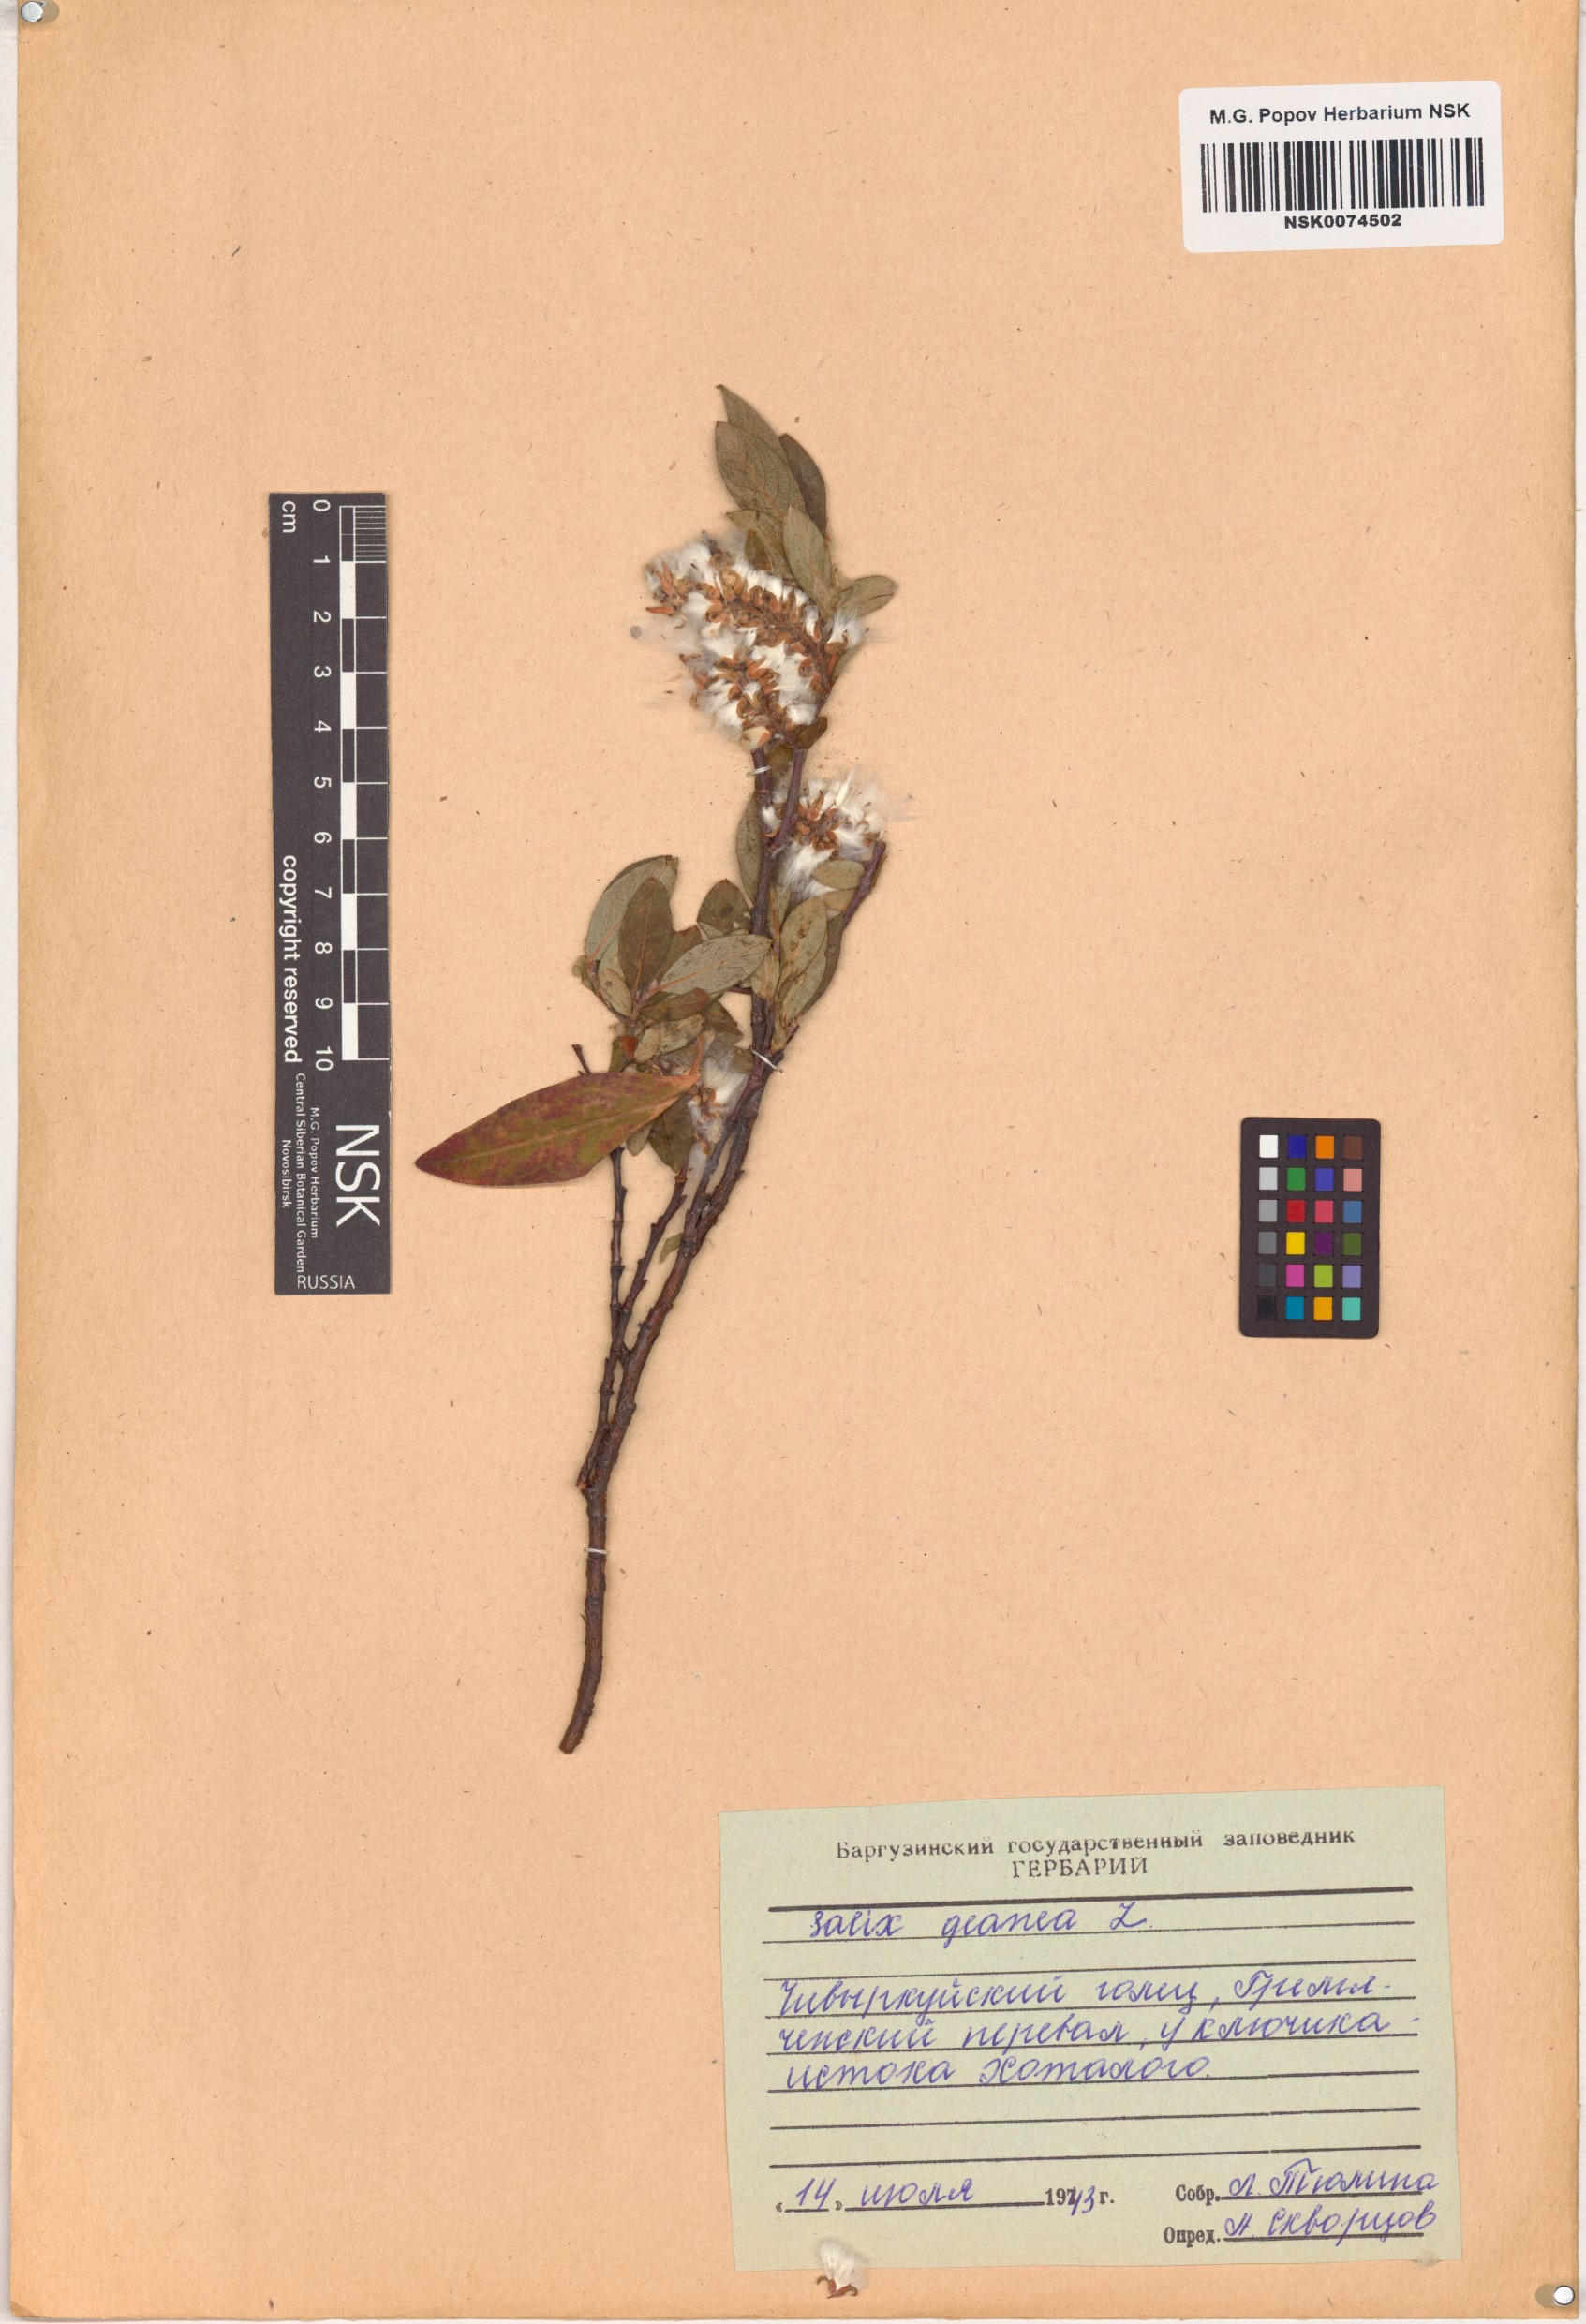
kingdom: Plantae
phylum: Tracheophyta
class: Magnoliopsida
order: Malpighiales
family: Salicaceae
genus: Salix
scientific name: Salix glauca
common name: Glaucous willow
